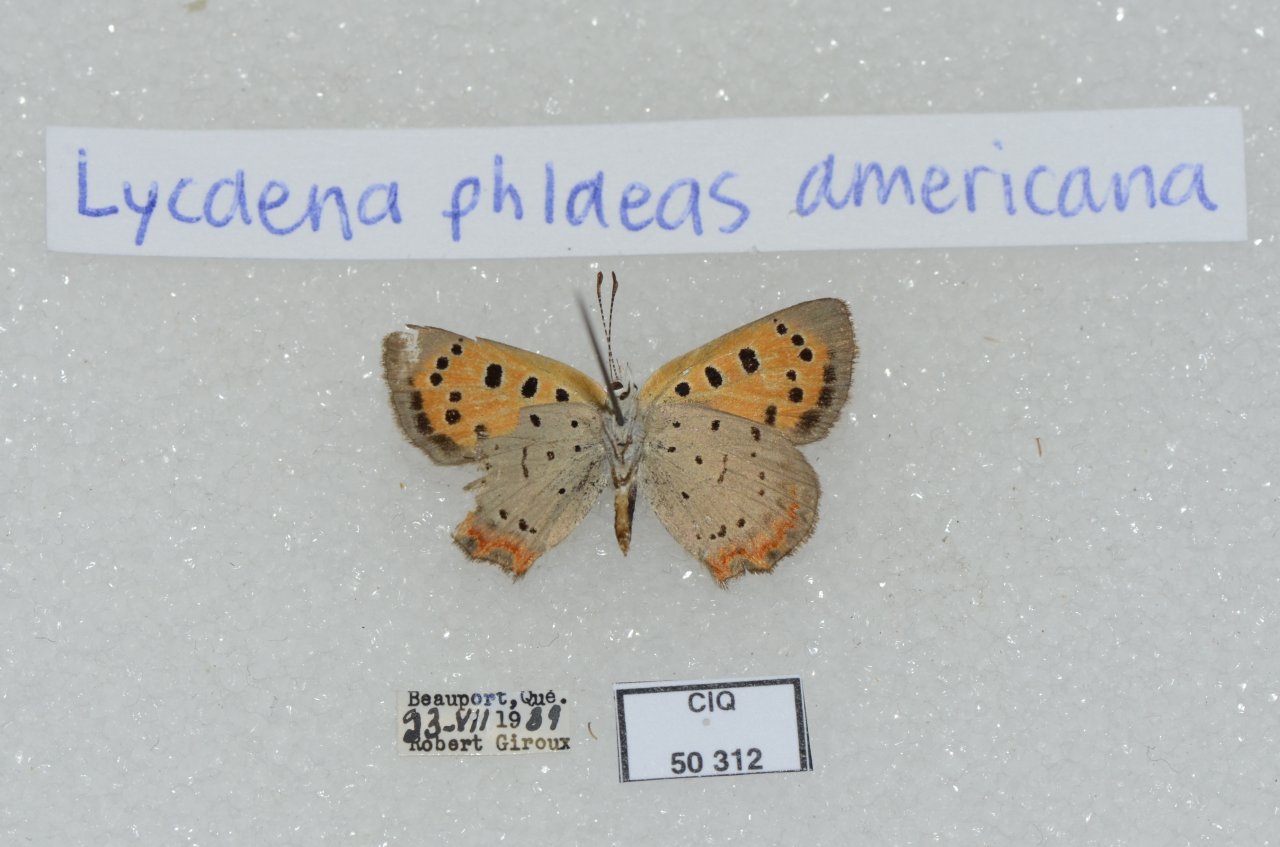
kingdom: Animalia
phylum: Arthropoda
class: Insecta
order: Lepidoptera
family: Lycaenidae
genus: Lycaena
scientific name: Lycaena phlaeas
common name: American Copper
